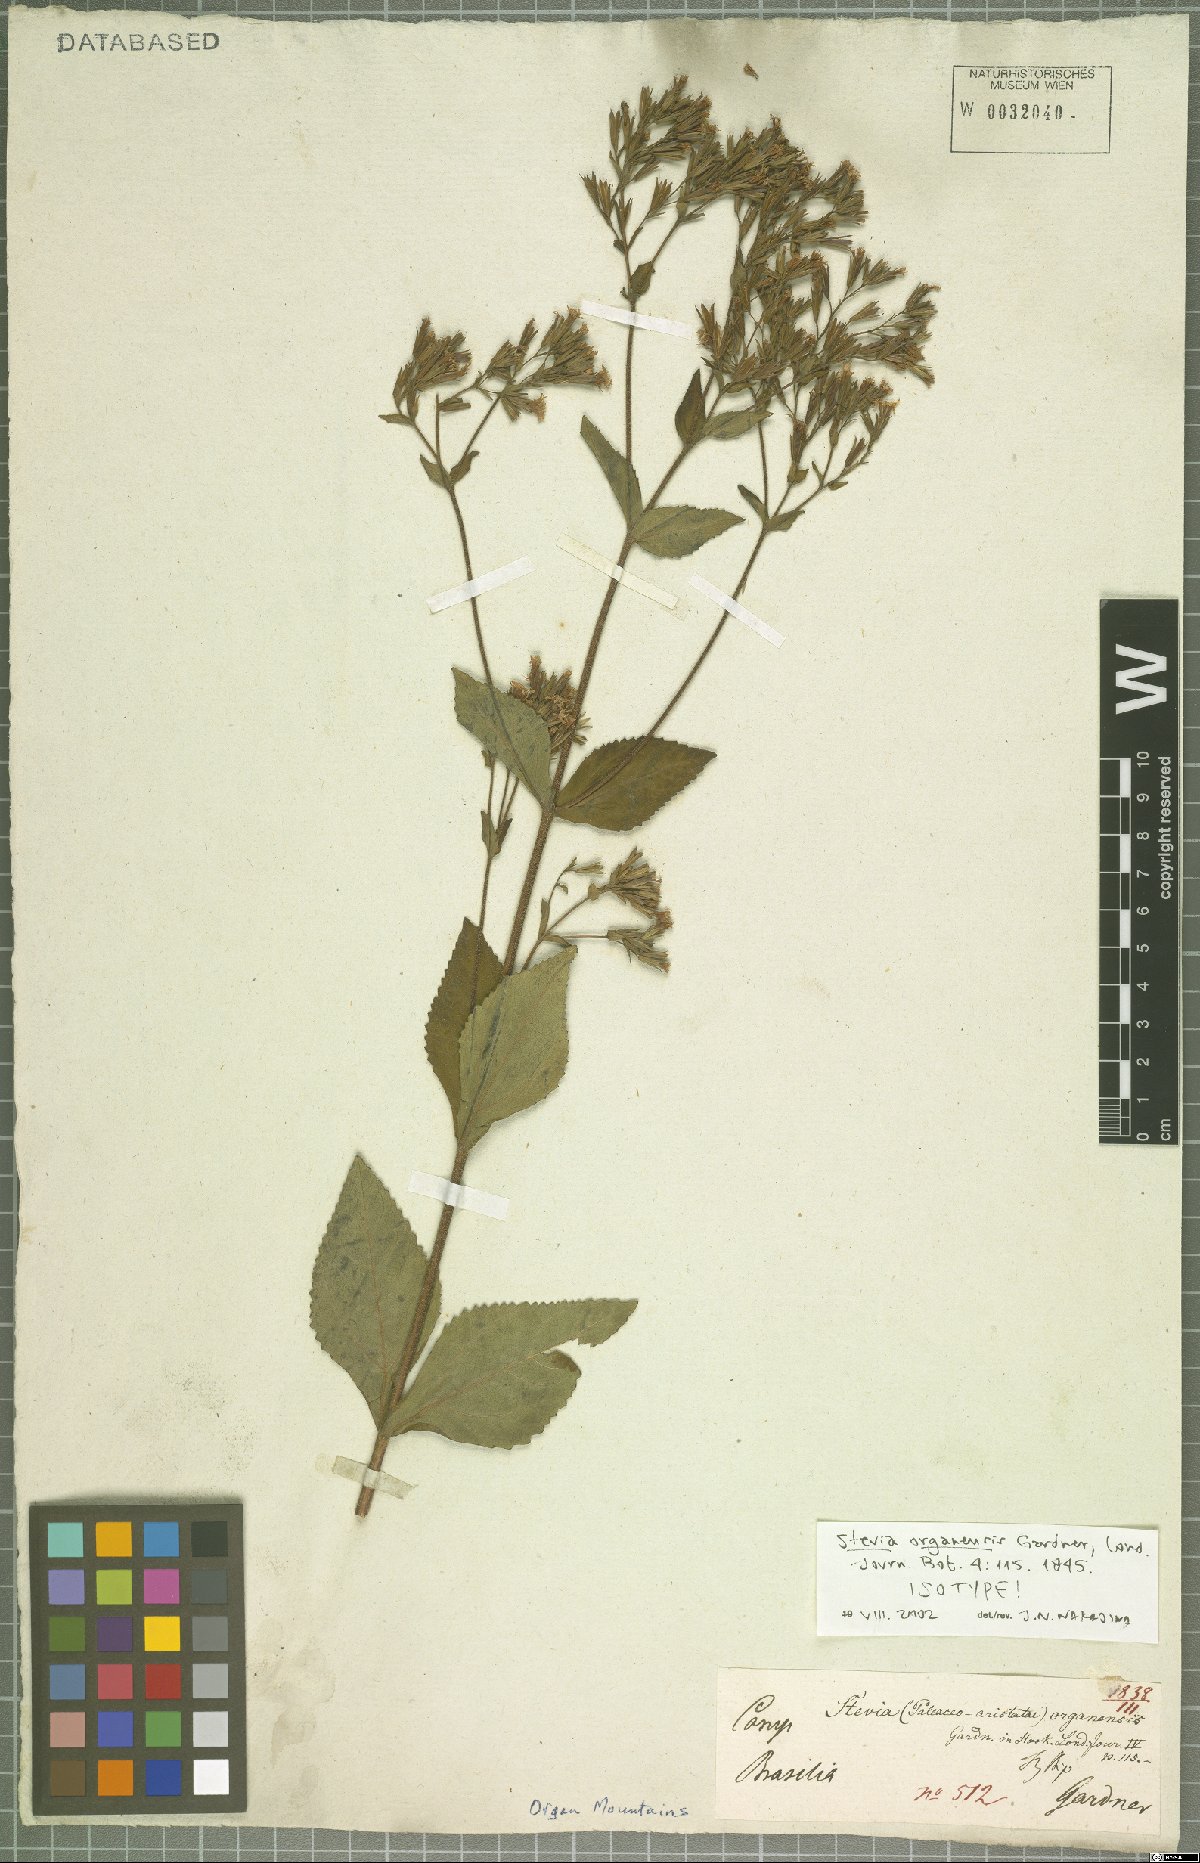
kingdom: Plantae
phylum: Tracheophyta
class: Magnoliopsida
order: Asterales
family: Asteraceae
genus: Stevia
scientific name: Stevia organensis
